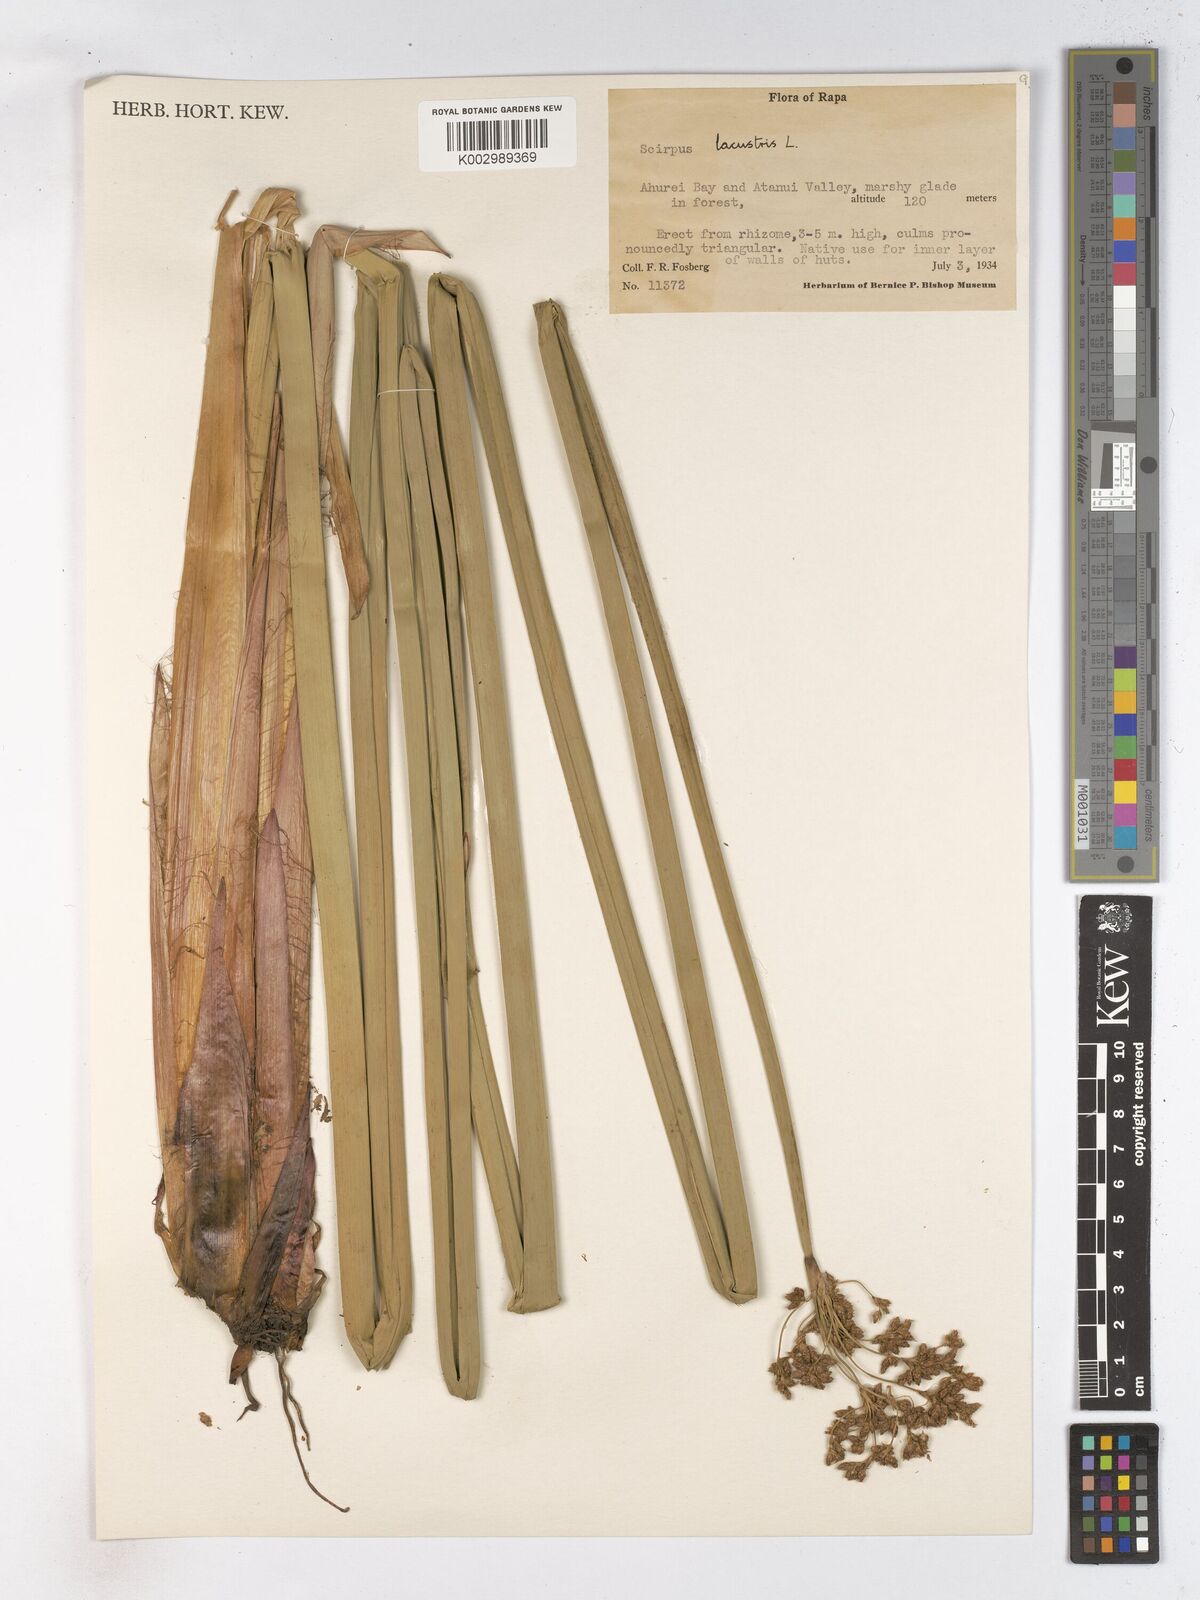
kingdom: Plantae
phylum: Tracheophyta
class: Liliopsida
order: Poales
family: Cyperaceae
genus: Schoenoplectus
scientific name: Schoenoplectus lacustris
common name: Common club-rush
